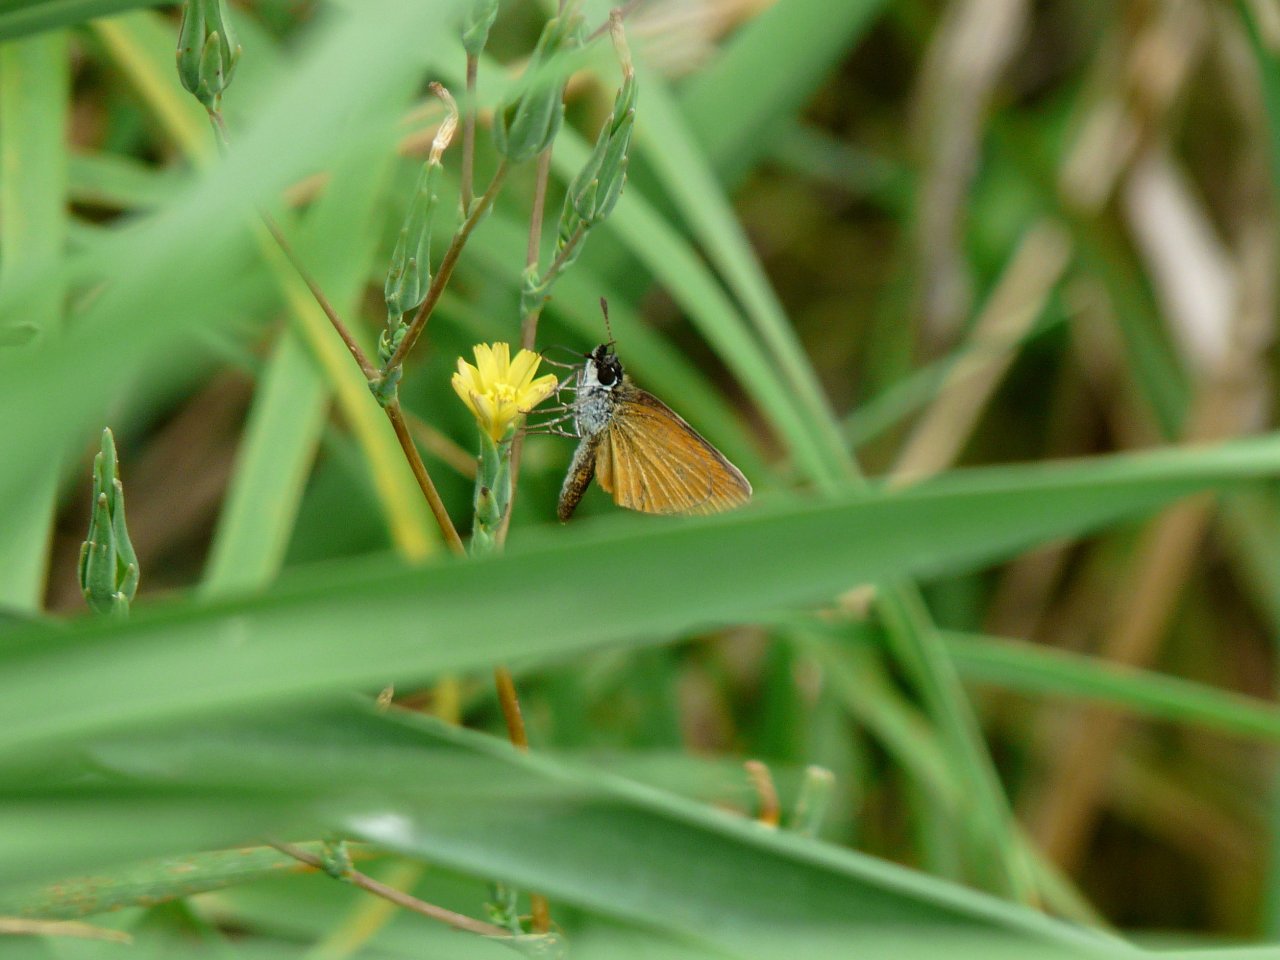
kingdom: Animalia
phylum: Arthropoda
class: Insecta
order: Lepidoptera
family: Hesperiidae
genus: Ancyloxypha
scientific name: Ancyloxypha numitor
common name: Least Skipper
